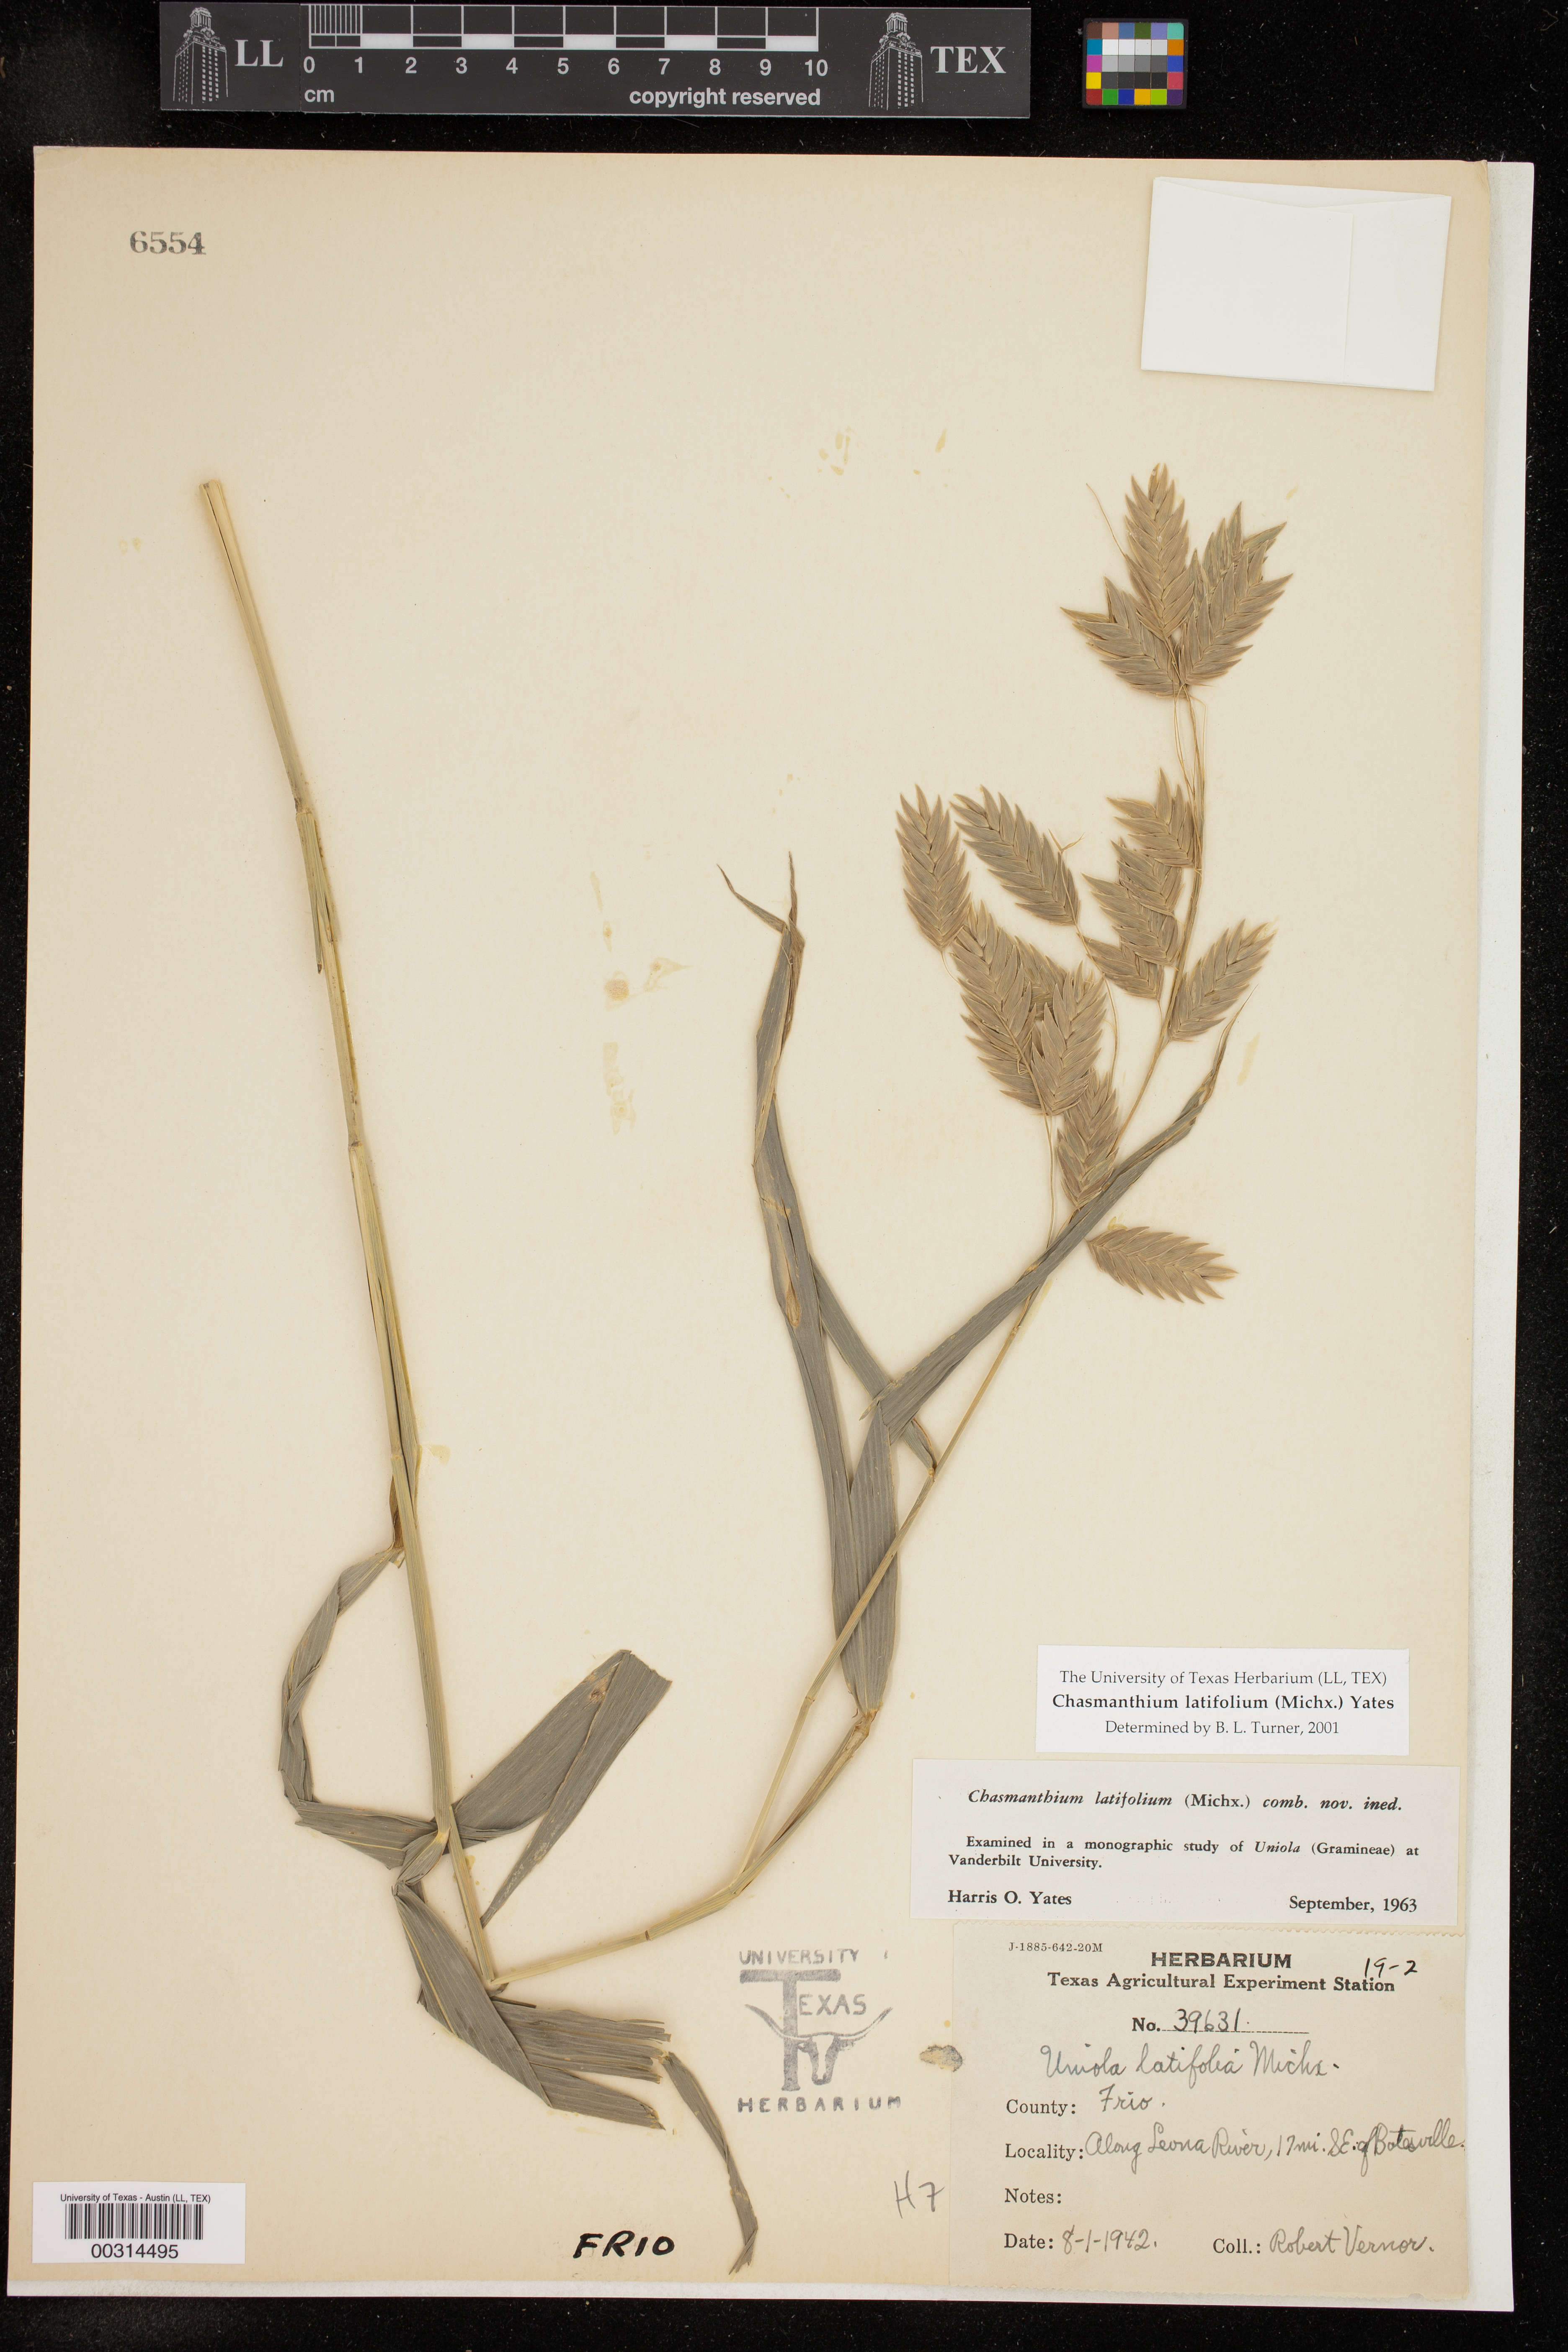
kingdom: Plantae
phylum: Tracheophyta
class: Liliopsida
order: Poales
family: Poaceae
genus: Chasmanthium
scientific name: Chasmanthium latifolium
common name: Broad-leaved chasmanthium
